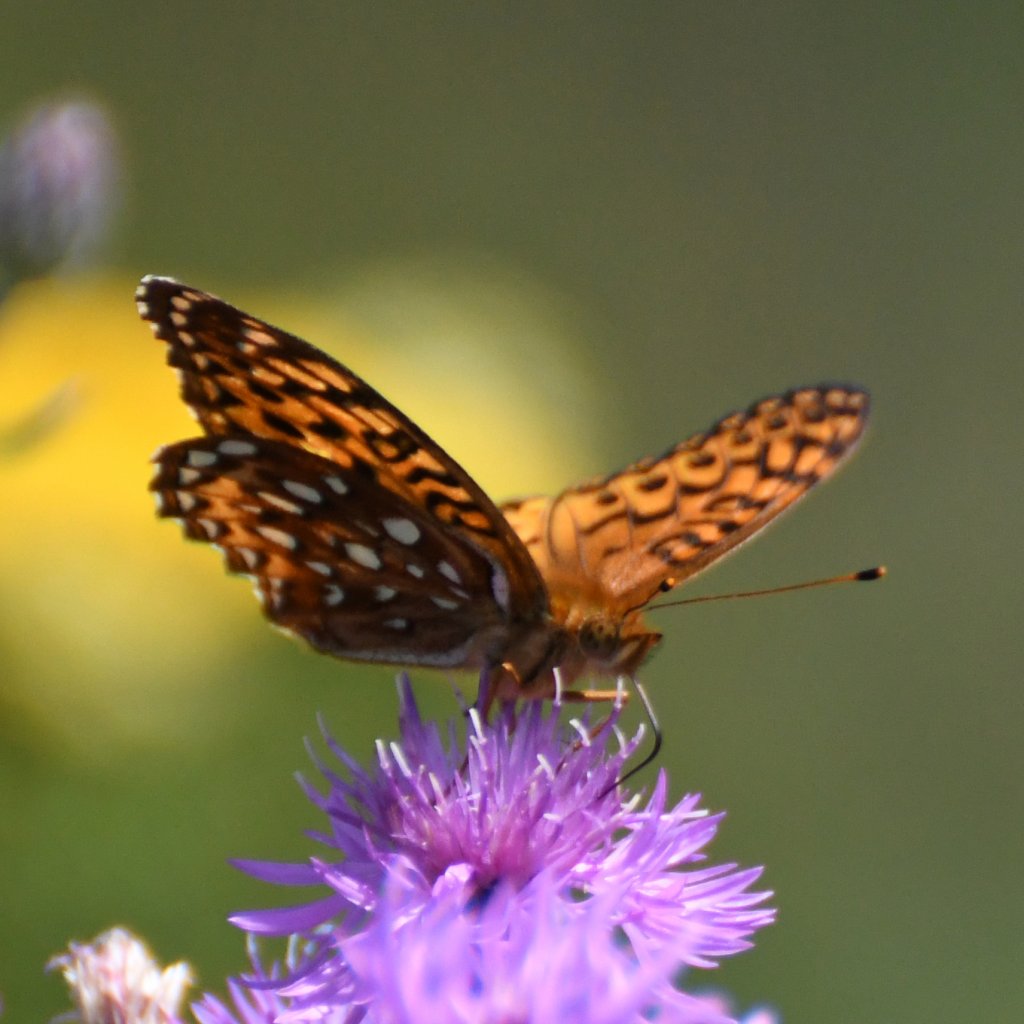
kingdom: Animalia
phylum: Arthropoda
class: Insecta
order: Lepidoptera
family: Nymphalidae
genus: Speyeria
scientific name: Speyeria aphrodite
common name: Aphrodite Fritillary
